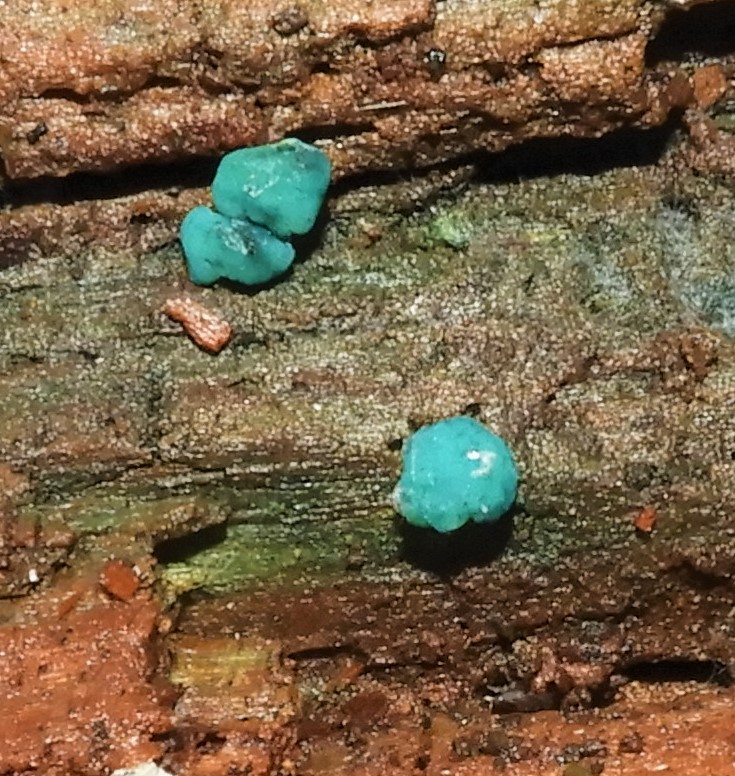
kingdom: Fungi
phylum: Ascomycota
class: Leotiomycetes
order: Helotiales
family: Chlorociboriaceae
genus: Chlorociboria
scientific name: Chlorociboria aeruginascens
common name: almindelig grønskive
